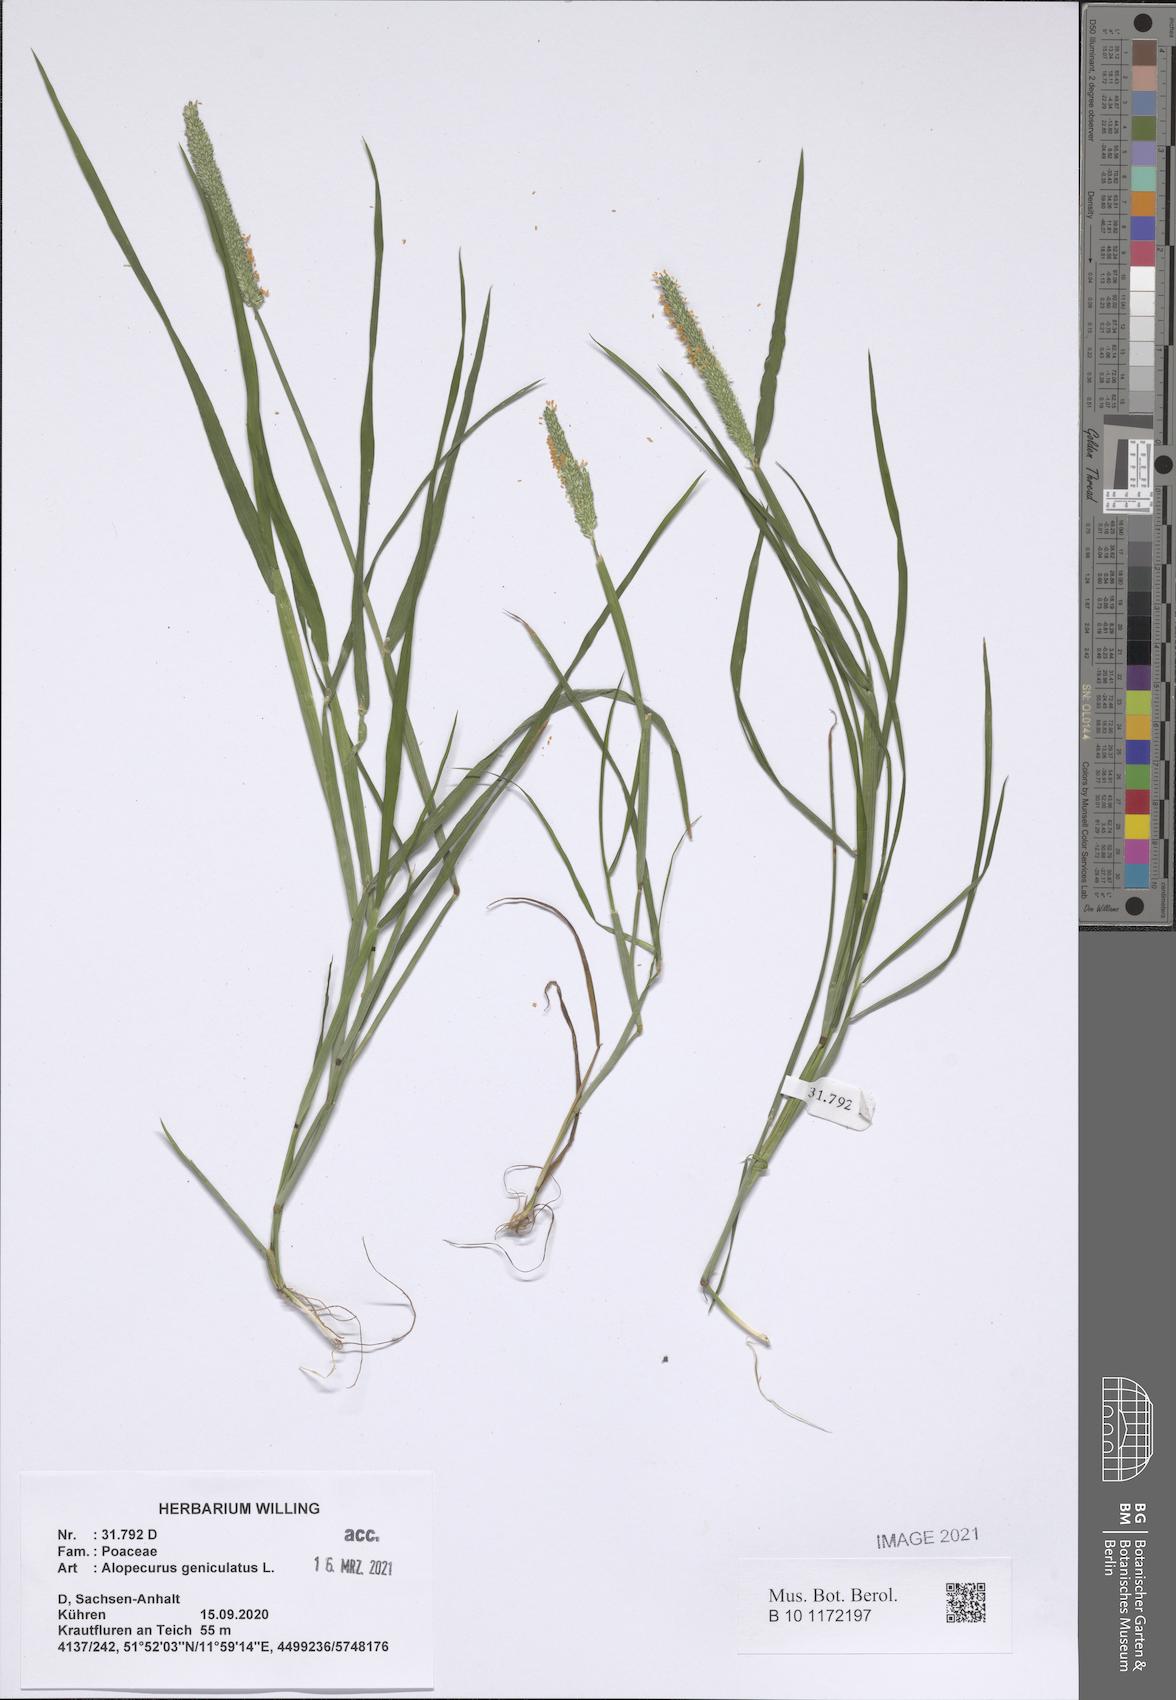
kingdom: Plantae
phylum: Tracheophyta
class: Liliopsida
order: Poales
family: Poaceae
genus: Alopecurus
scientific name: Alopecurus geniculatus
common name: Water foxtail
